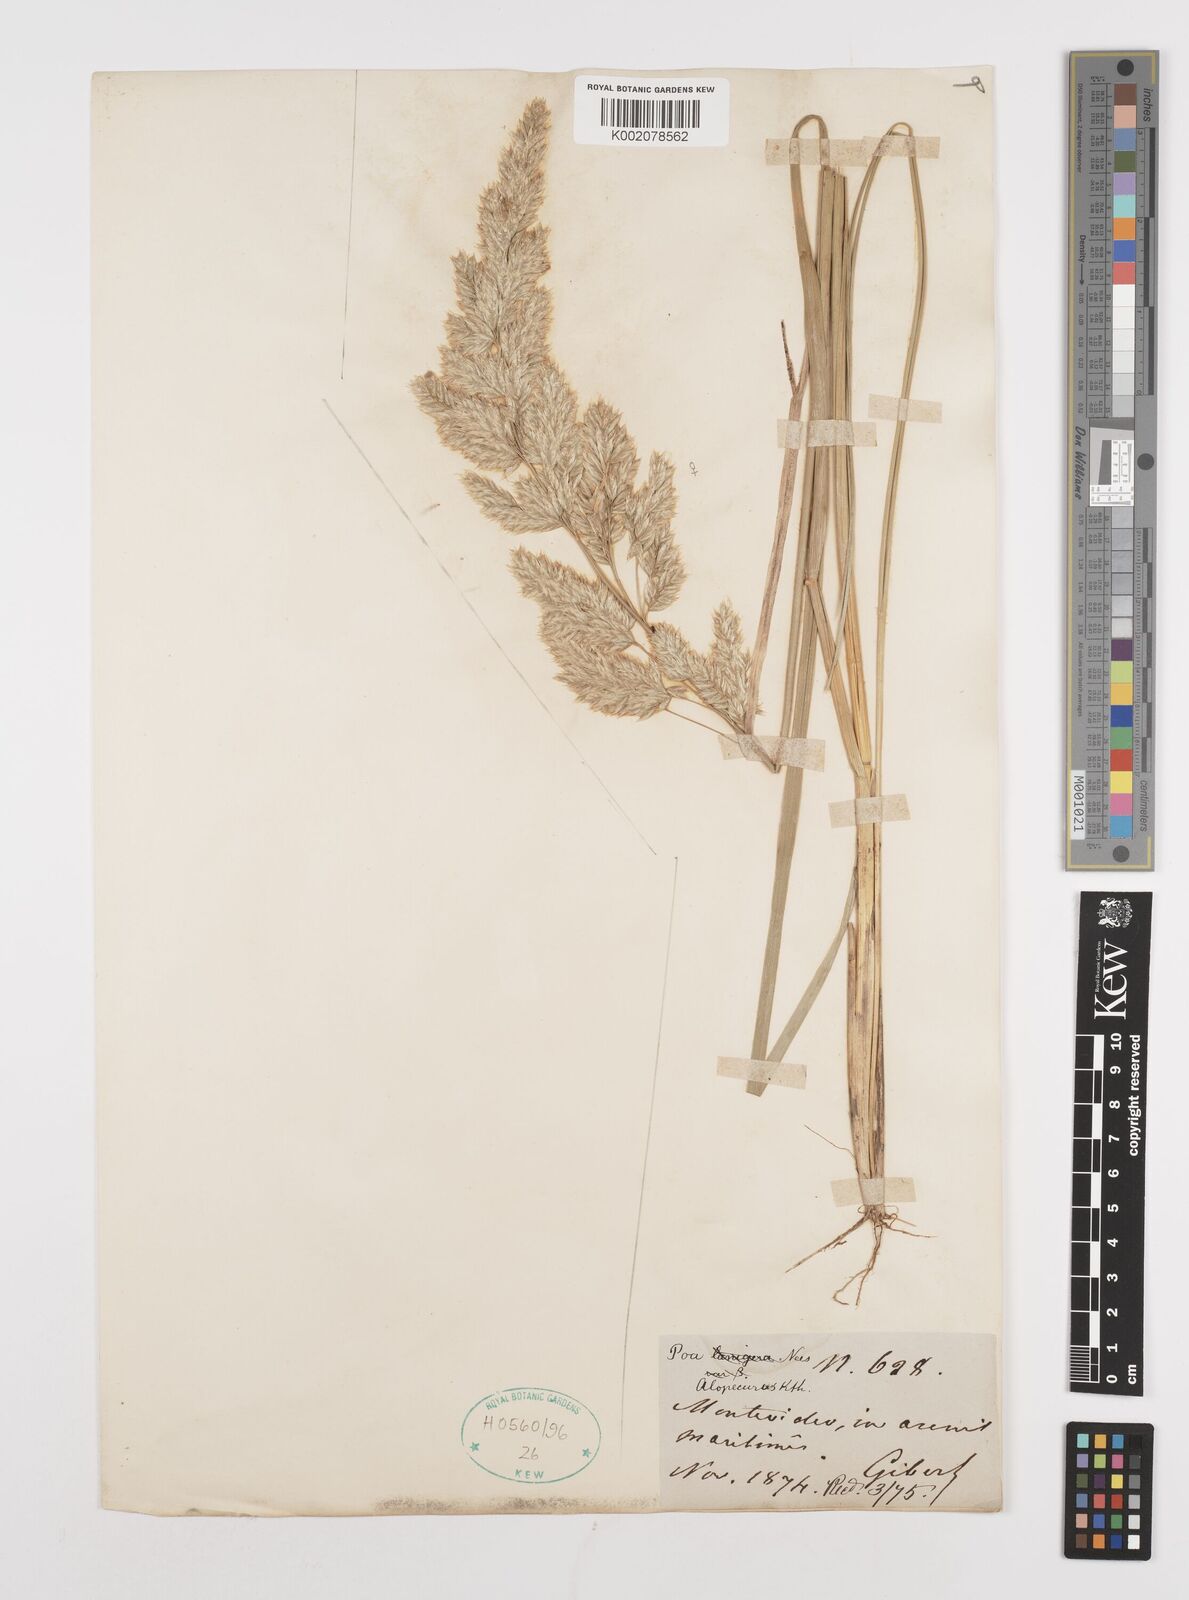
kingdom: Plantae
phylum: Tracheophyta
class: Liliopsida
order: Poales
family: Poaceae
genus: Poa
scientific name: Poa lanuginosa
